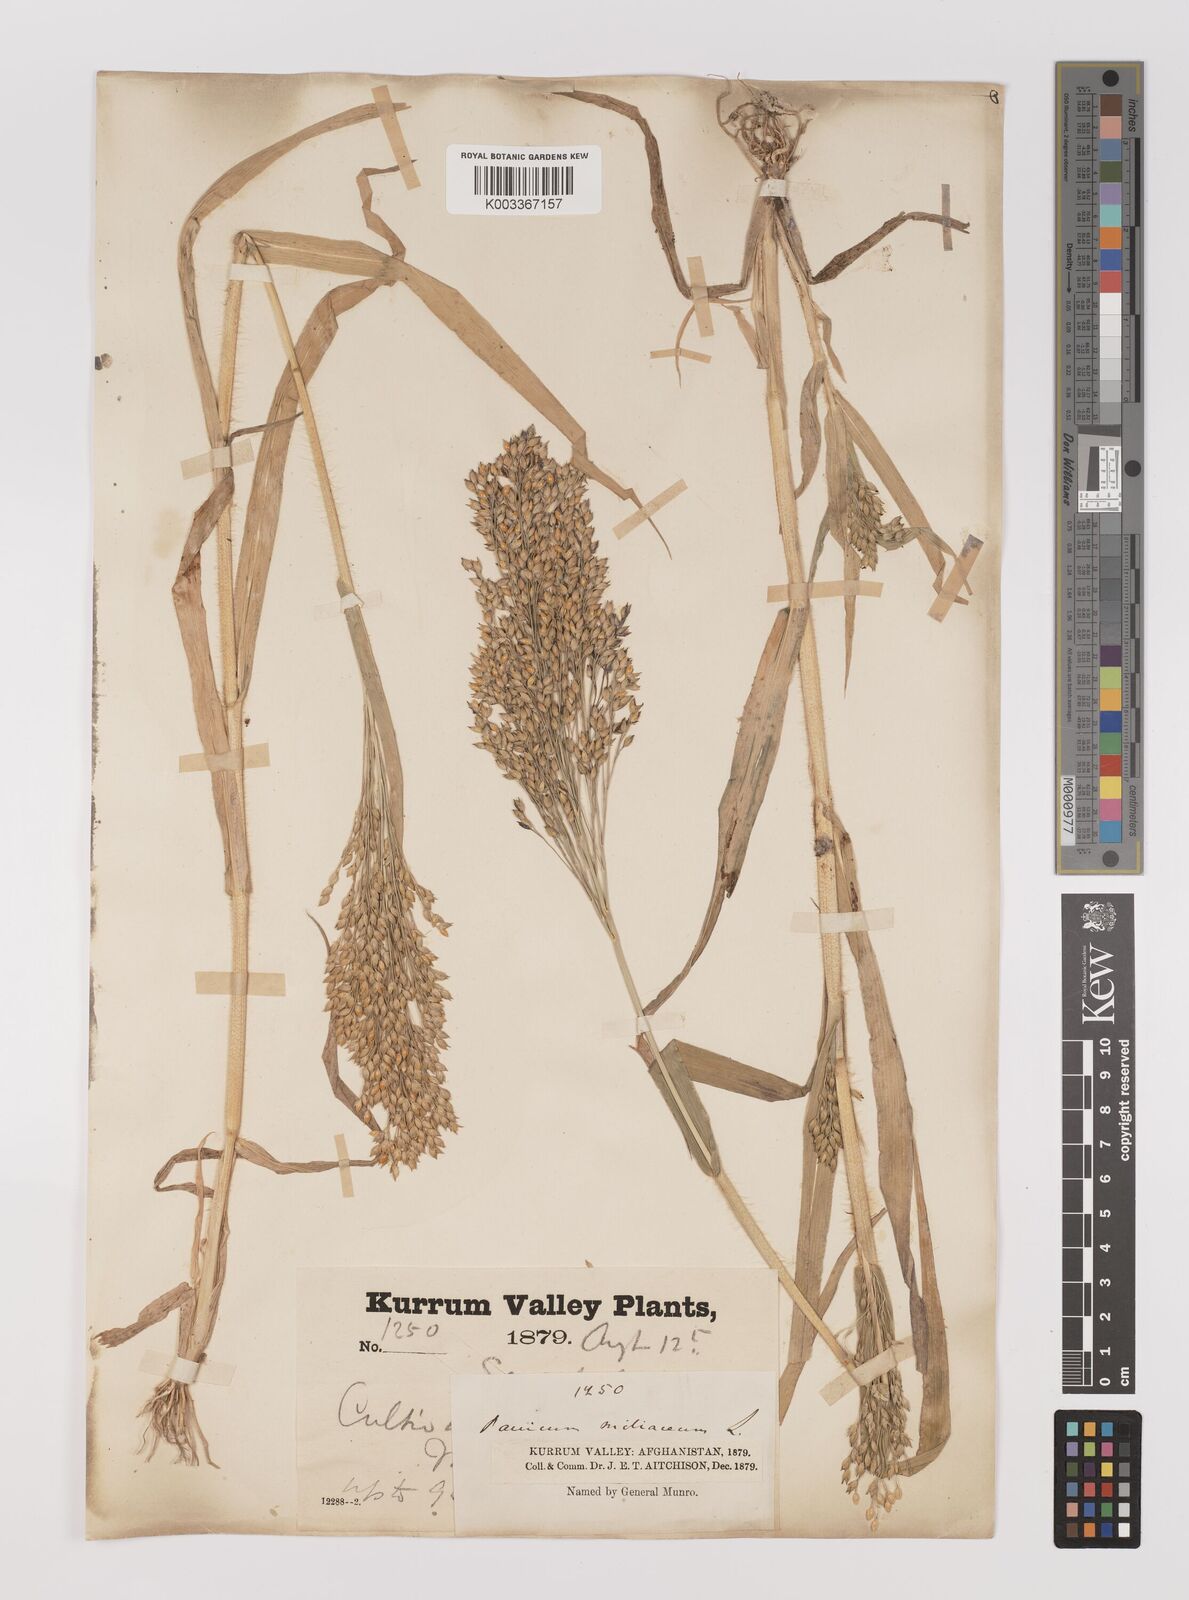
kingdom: Plantae
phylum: Tracheophyta
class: Liliopsida
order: Poales
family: Poaceae
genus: Panicum
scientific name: Panicum miliaceum
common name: Common millet
